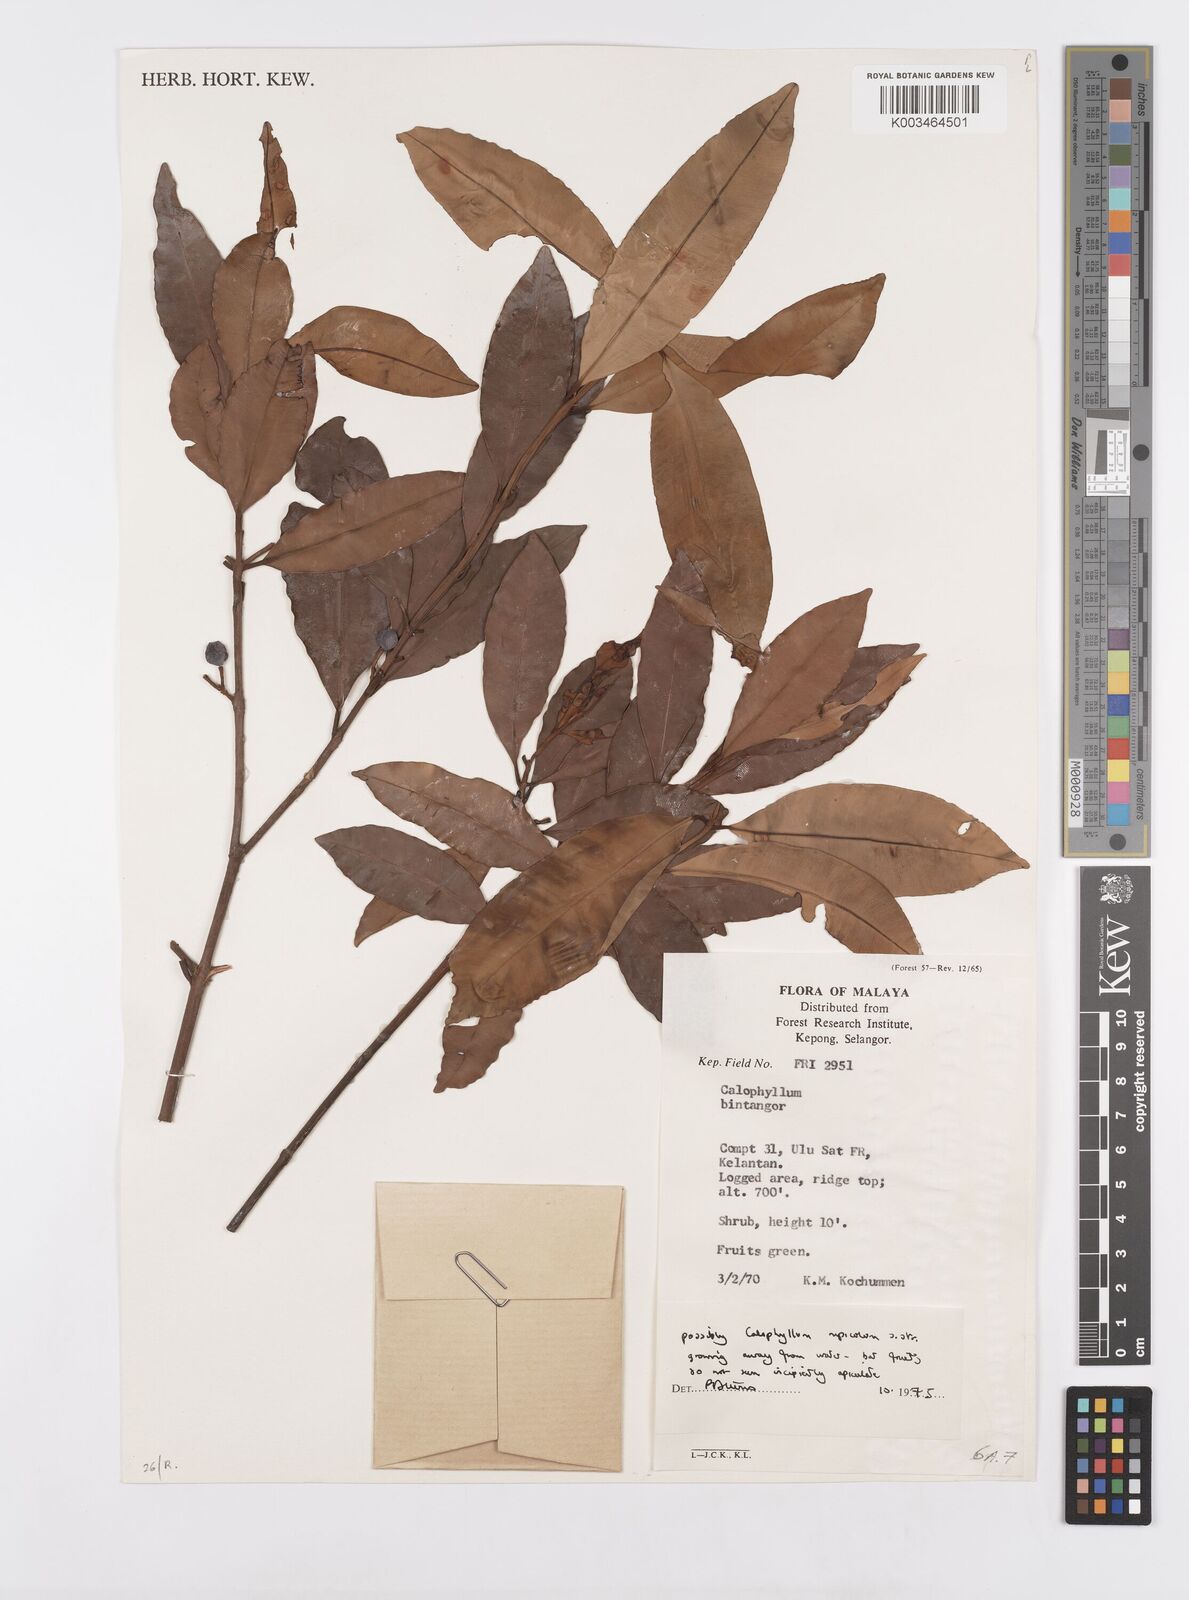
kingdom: Plantae
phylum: Tracheophyta
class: Magnoliopsida
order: Malpighiales
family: Calophyllaceae
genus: Calophyllum
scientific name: Calophyllum rupicola
